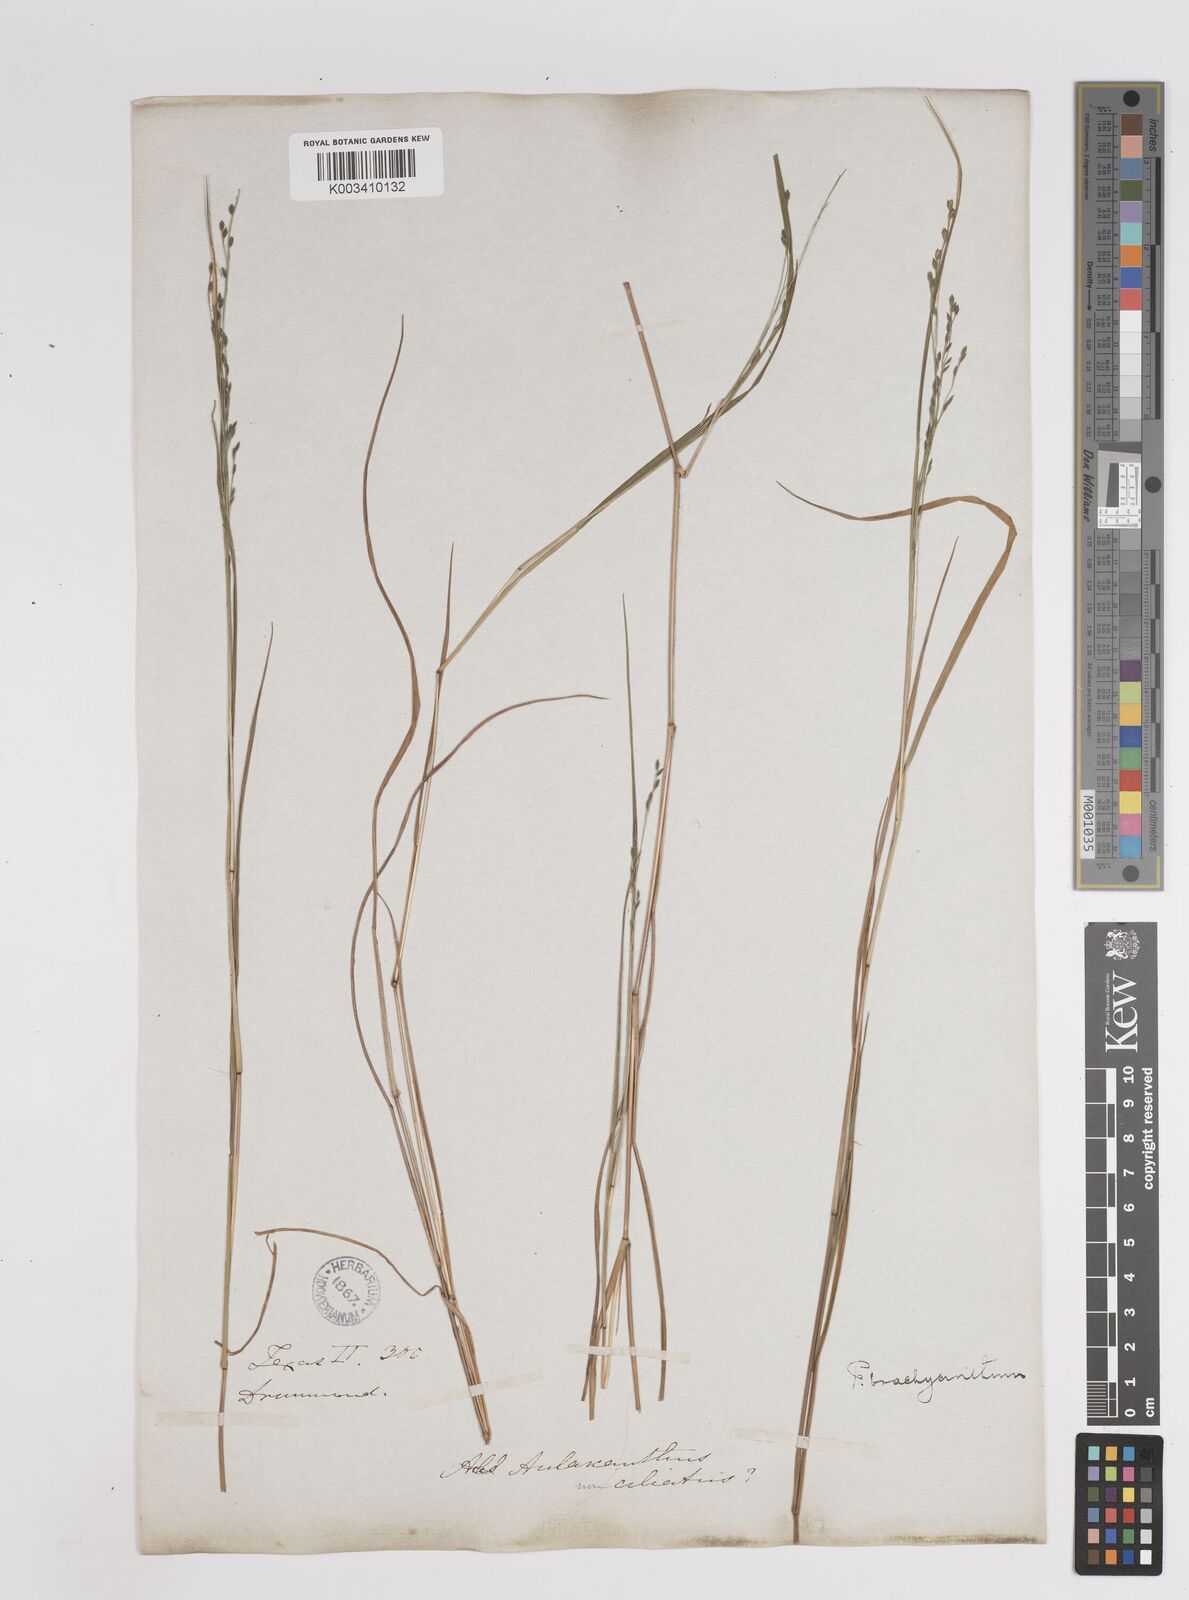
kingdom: Plantae
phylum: Tracheophyta
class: Liliopsida
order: Poales
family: Poaceae
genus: Kellochloa
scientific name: Kellochloa brachyantha
